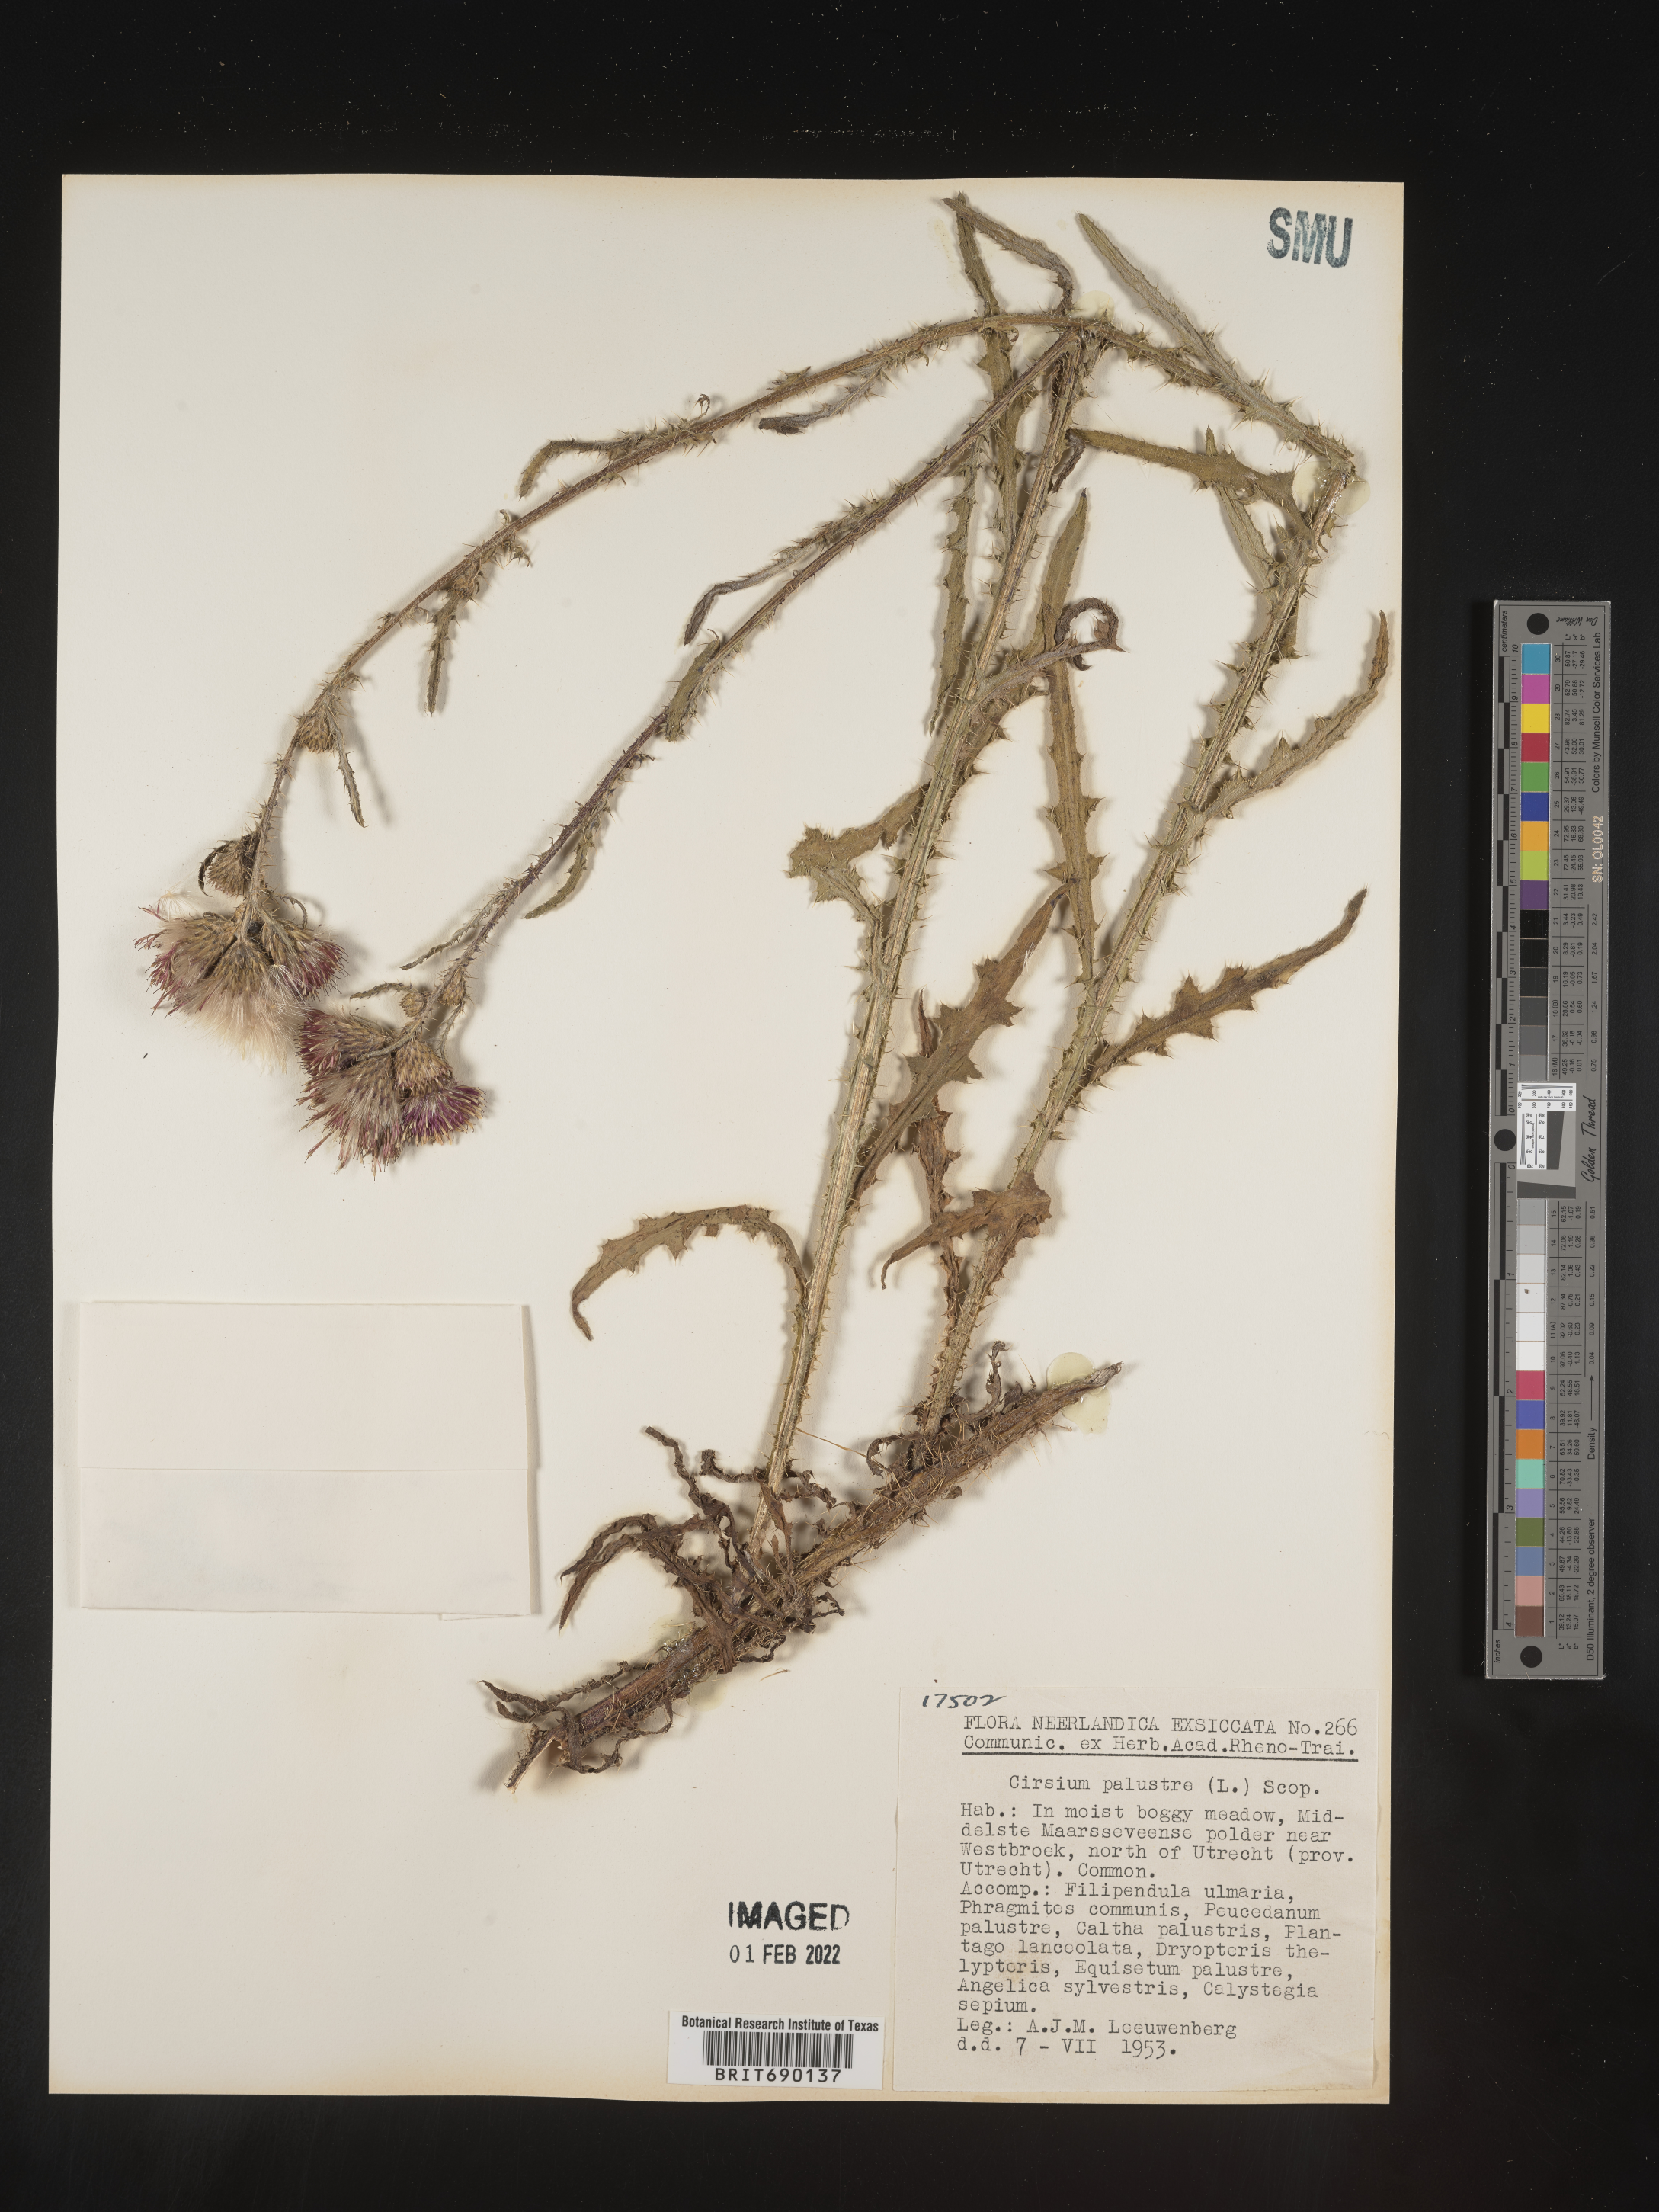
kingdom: Plantae
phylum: Tracheophyta
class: Magnoliopsida
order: Asterales
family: Asteraceae
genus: Cirsium
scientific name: Cirsium
